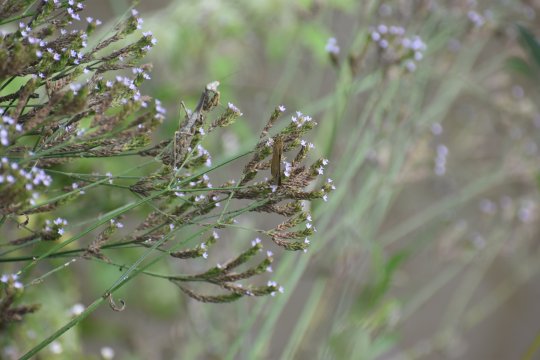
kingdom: Animalia
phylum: Arthropoda
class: Insecta
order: Lepidoptera
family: Hesperiidae
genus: Panoquina
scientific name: Panoquina ocola
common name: Ocola Skipper
